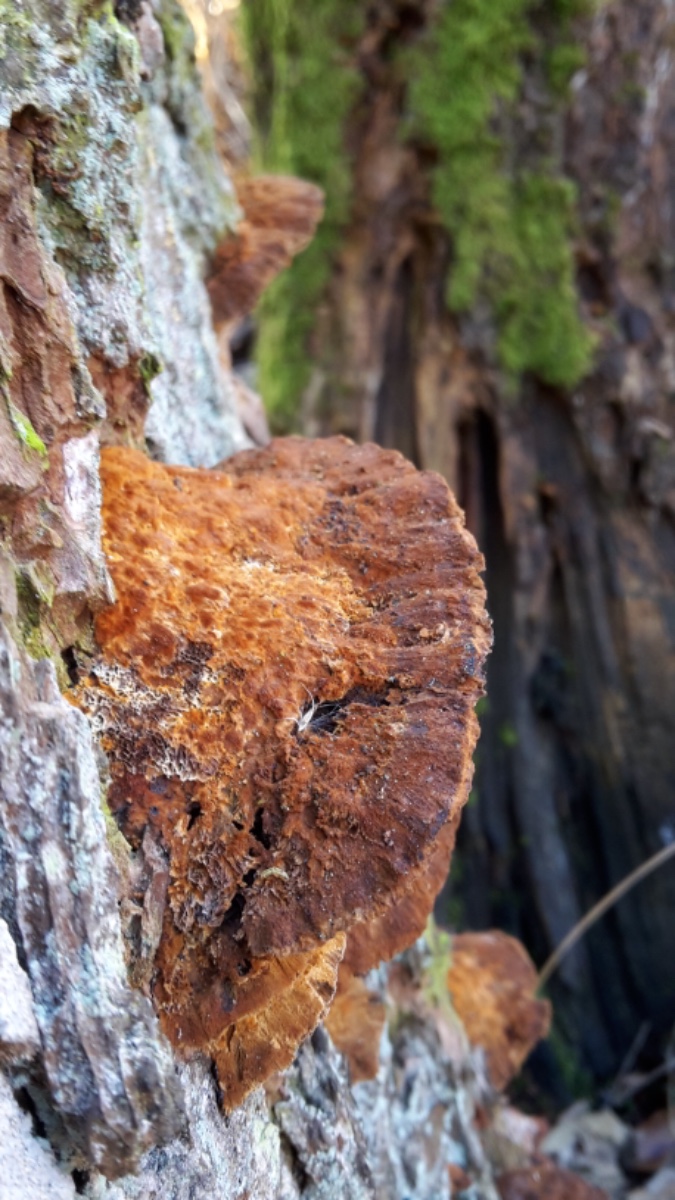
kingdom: Fungi
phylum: Basidiomycota
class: Agaricomycetes
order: Hymenochaetales
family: Hymenochaetaceae
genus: Xanthoporia
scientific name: Xanthoporia radiata
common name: elle-spejlporesvamp
